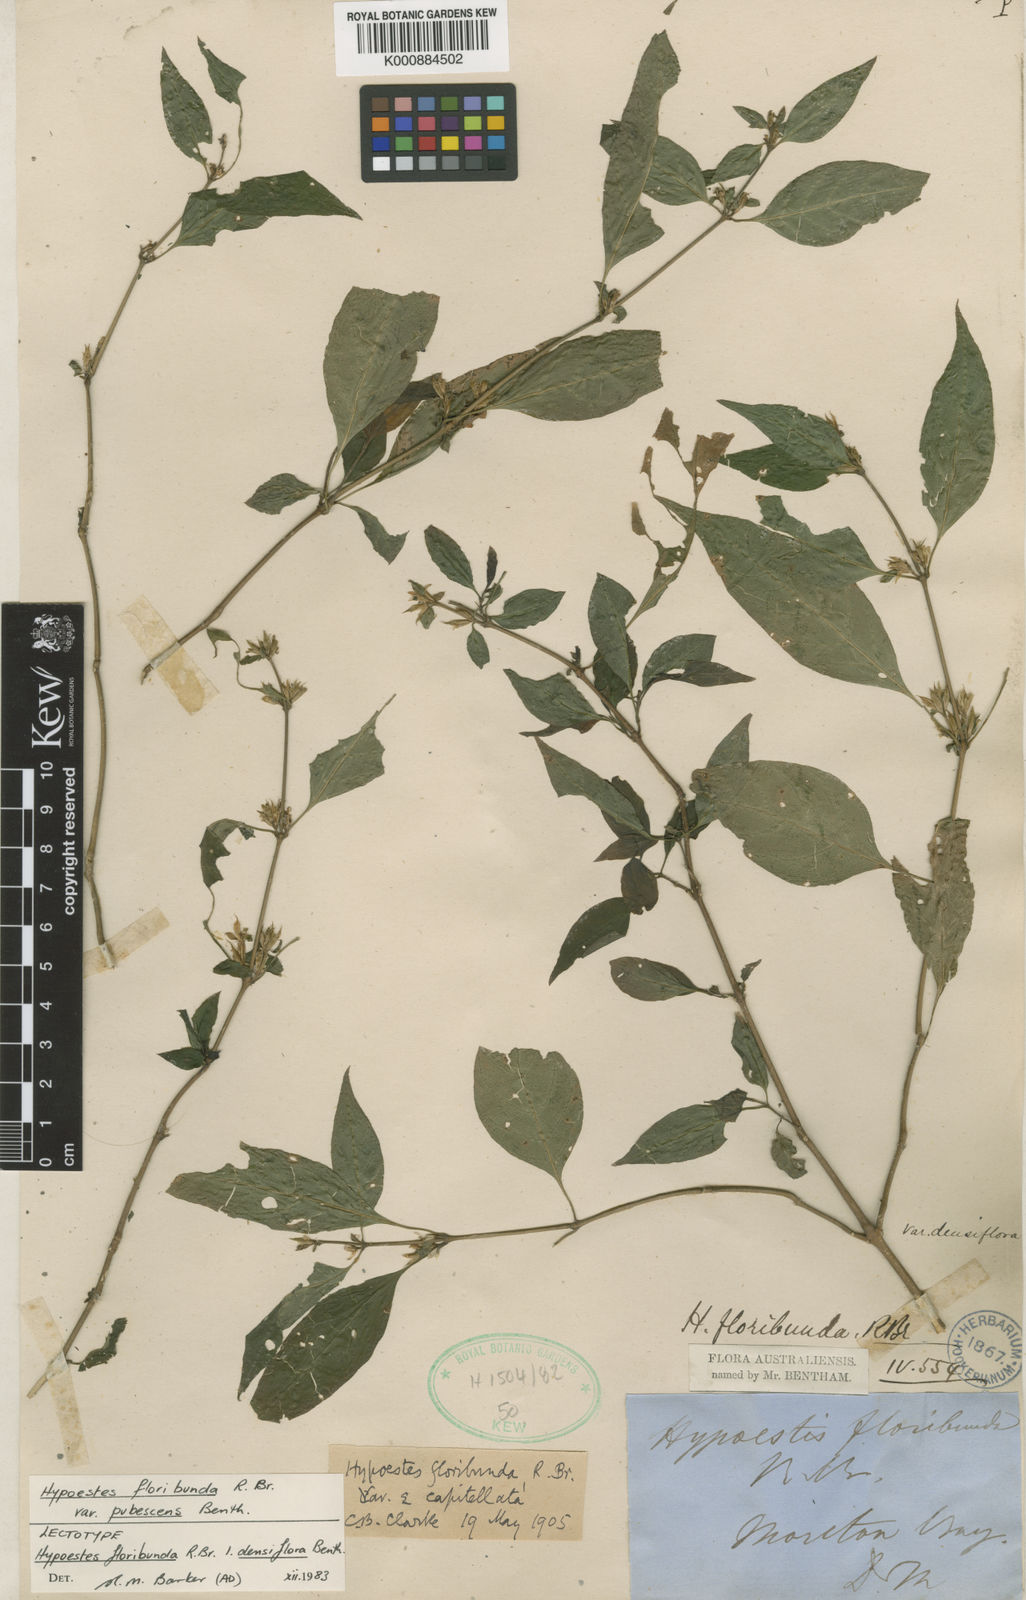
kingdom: Plantae
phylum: Tracheophyta
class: Magnoliopsida
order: Lamiales
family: Acanthaceae
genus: Hypoestes
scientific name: Hypoestes floribunda
